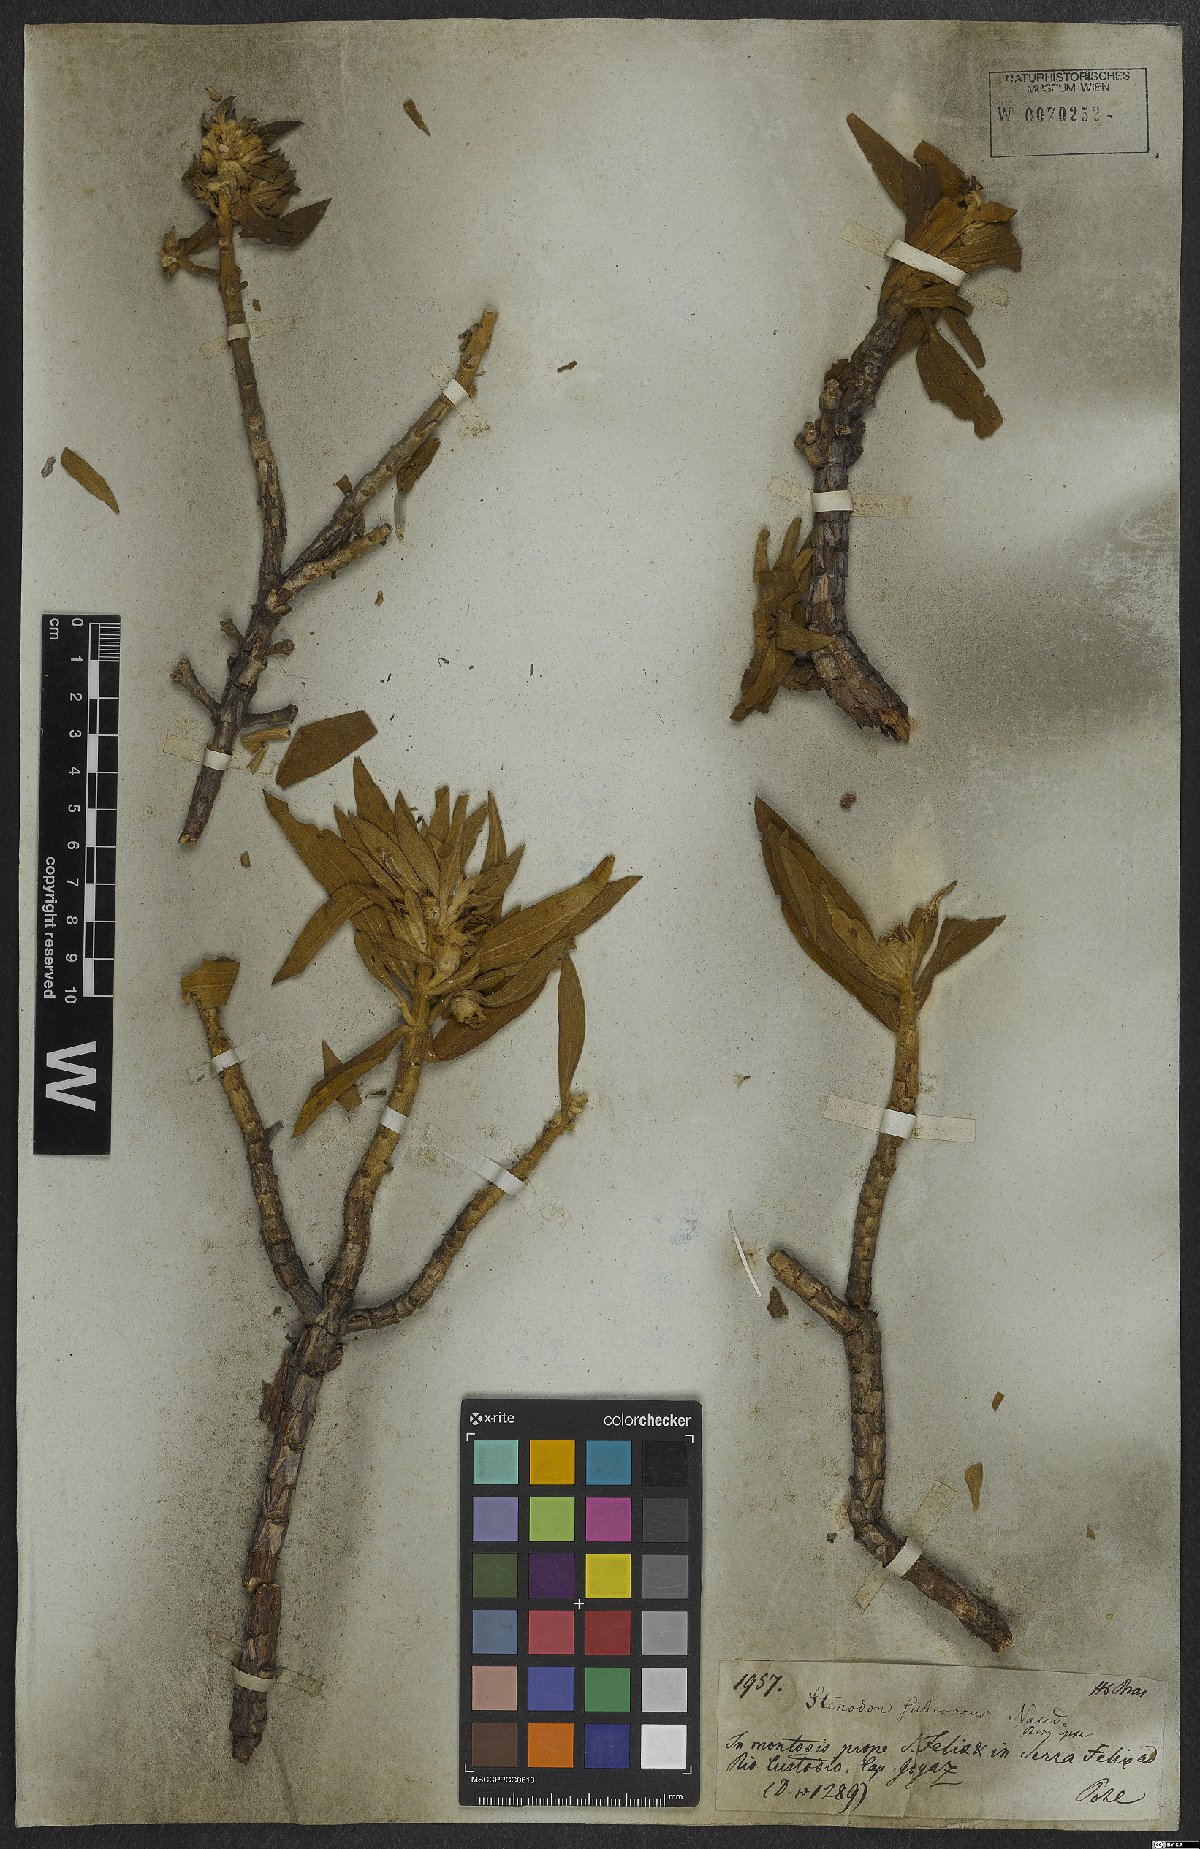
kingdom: Plantae
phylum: Tracheophyta
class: Magnoliopsida
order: Myrtales
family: Melastomataceae
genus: Microlicia
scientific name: Microlicia suberosa
